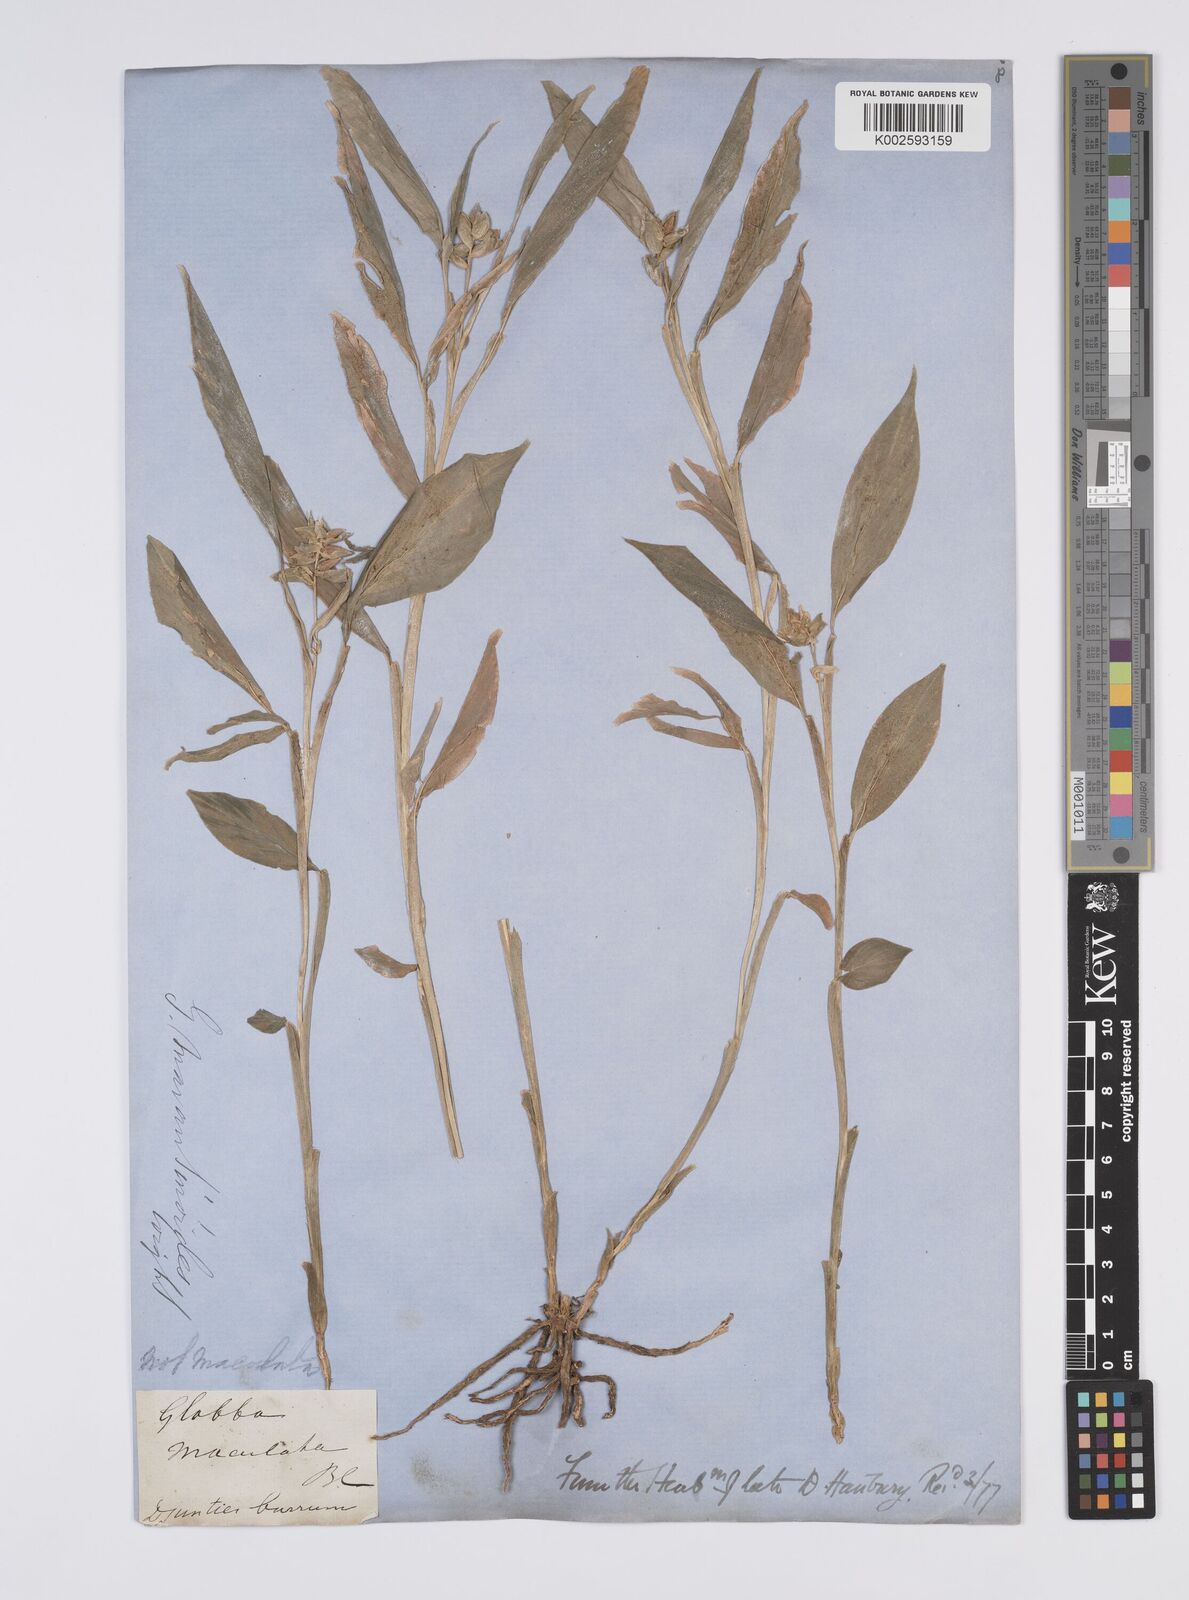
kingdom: Plantae
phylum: Tracheophyta
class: Liliopsida
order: Zingiberales
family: Zingiberaceae
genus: Globba
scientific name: Globba marantina
